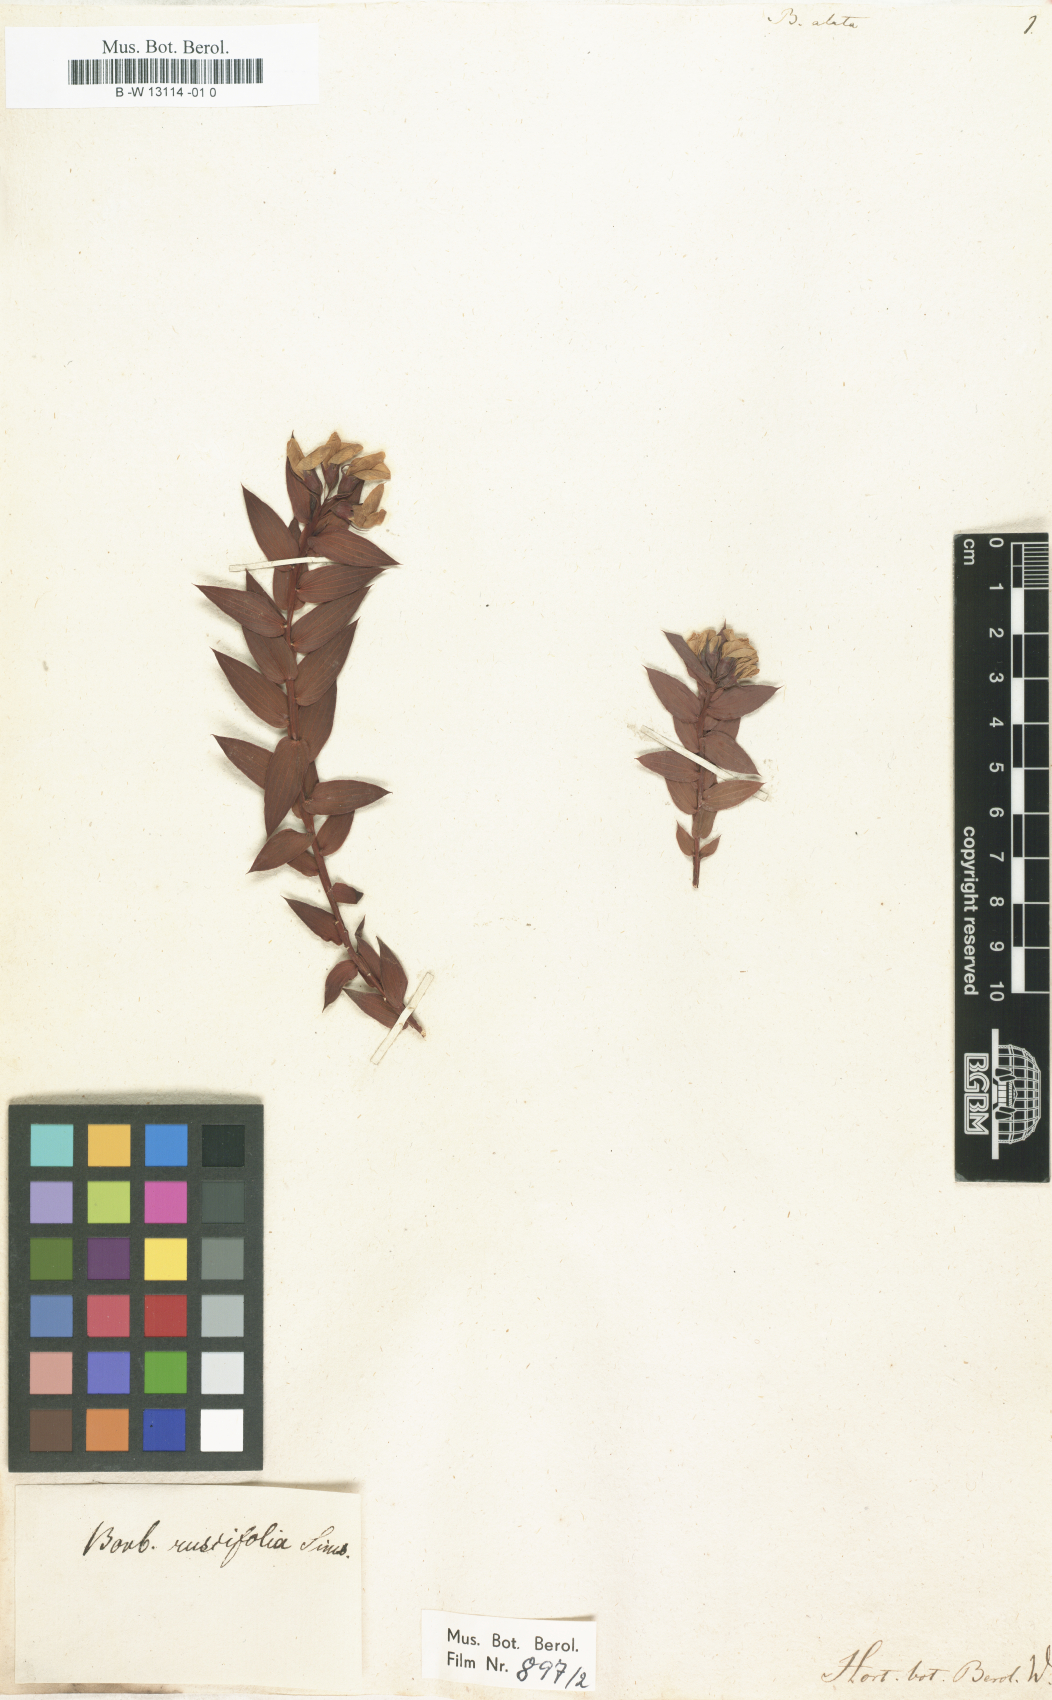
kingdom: Plantae
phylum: Tracheophyta
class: Magnoliopsida
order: Fabales
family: Fabaceae
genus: Aspalathus
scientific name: Aspalathus crenata
